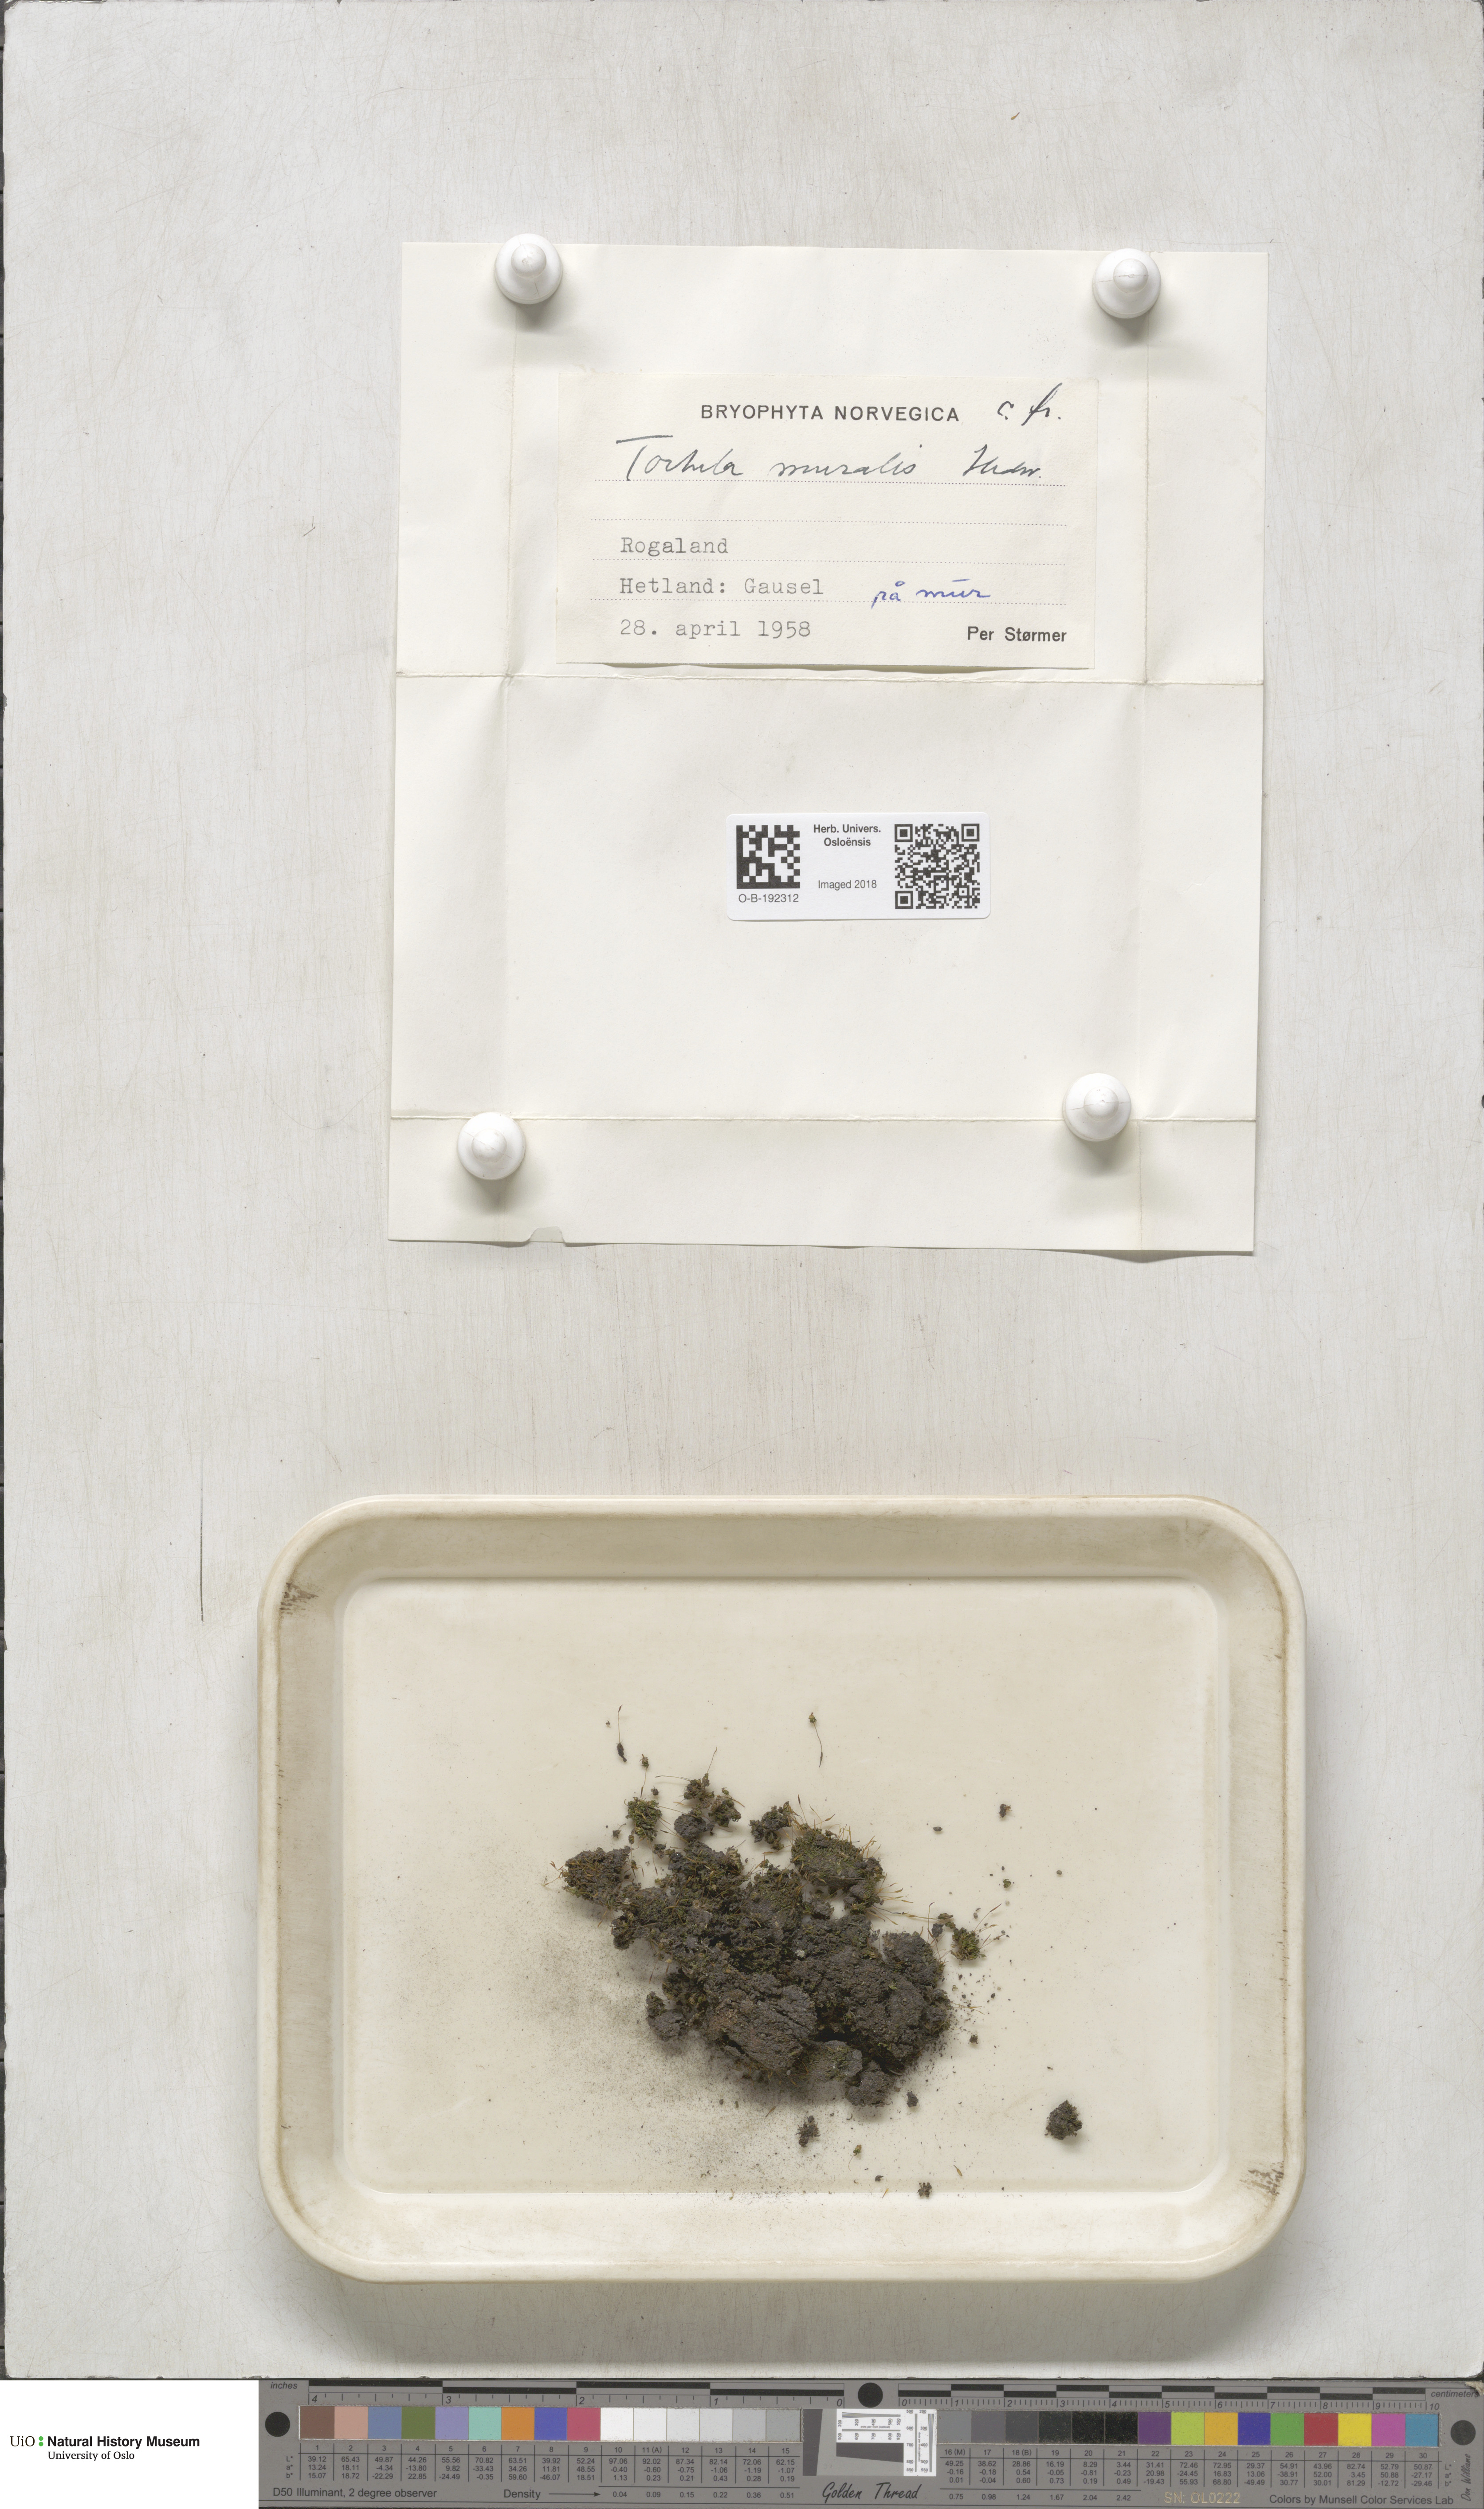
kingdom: Plantae
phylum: Bryophyta
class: Bryopsida
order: Pottiales
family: Pottiaceae
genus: Tortula
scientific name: Tortula muralis
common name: Wall screw-moss
